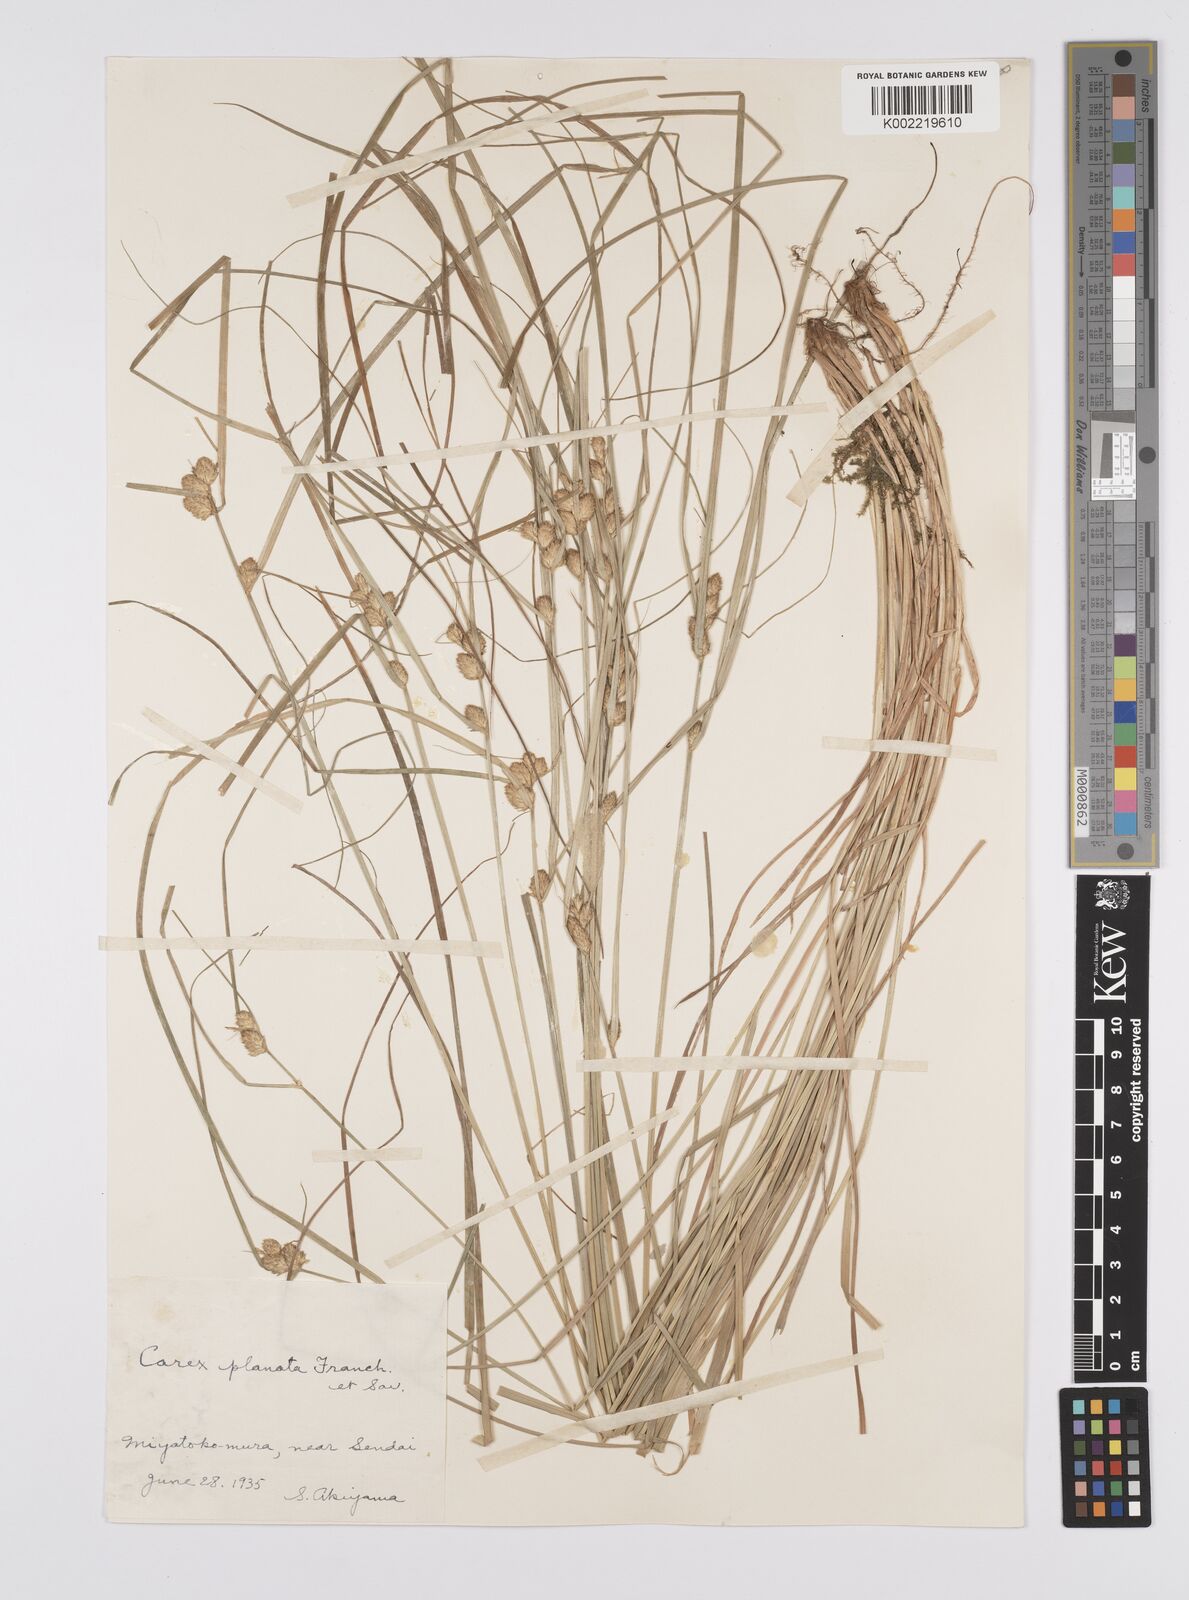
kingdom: Plantae
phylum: Tracheophyta
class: Liliopsida
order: Poales
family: Cyperaceae
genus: Carex
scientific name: Carex planata
